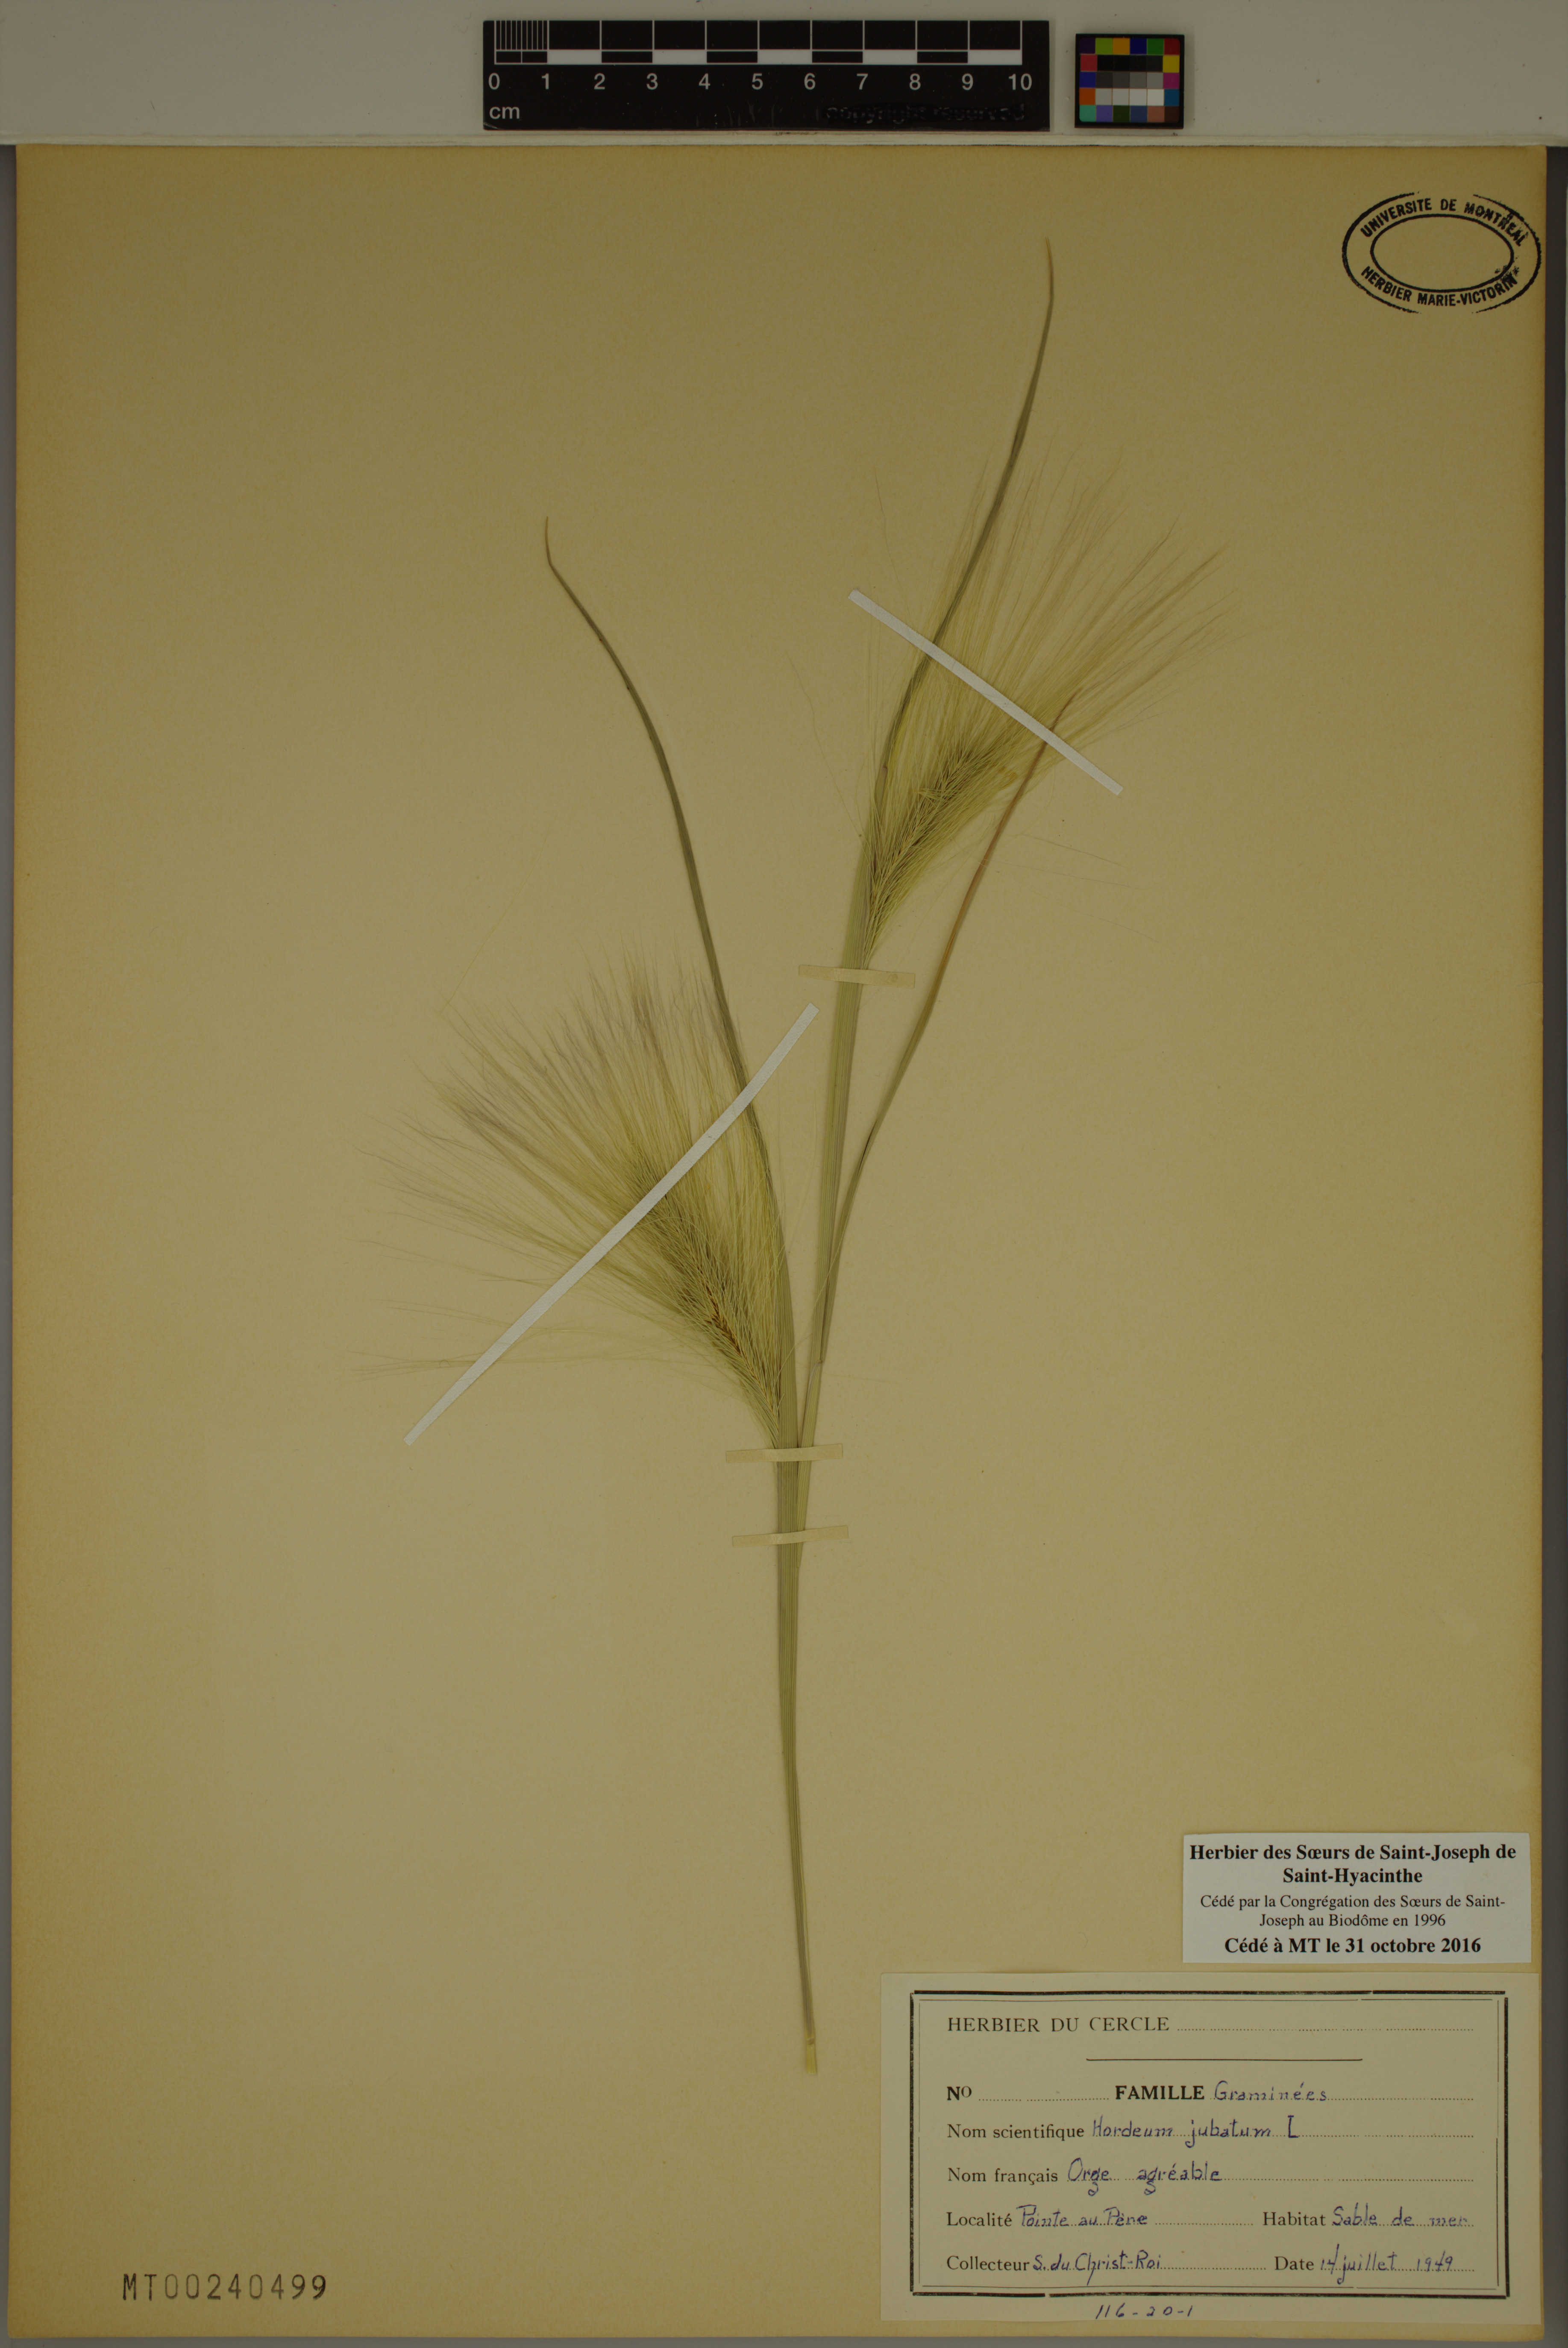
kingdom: Plantae
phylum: Tracheophyta
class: Liliopsida
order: Poales
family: Poaceae
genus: Hordeum
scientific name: Hordeum jubatum
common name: Foxtail barley
